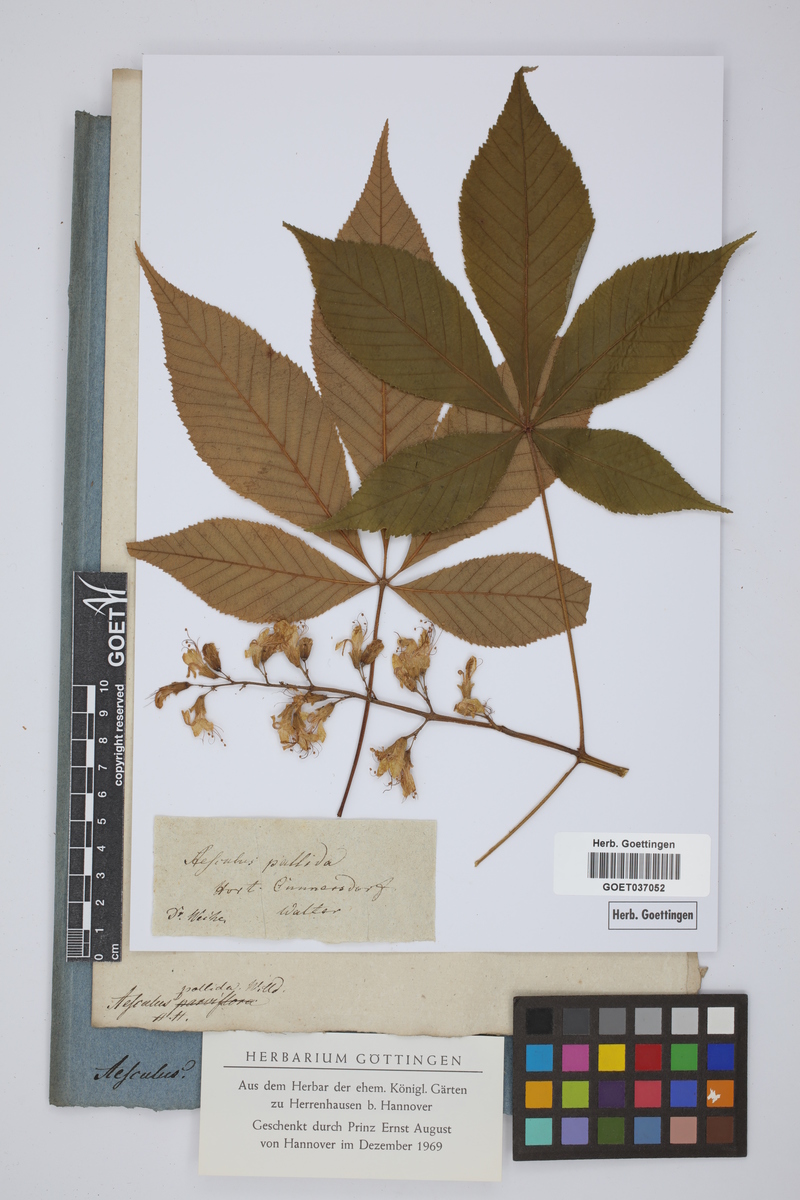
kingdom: Plantae
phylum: Tracheophyta
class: Magnoliopsida
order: Sapindales
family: Sapindaceae
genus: Aesculus
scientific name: Aesculus glabra
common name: Ohio buckeye
